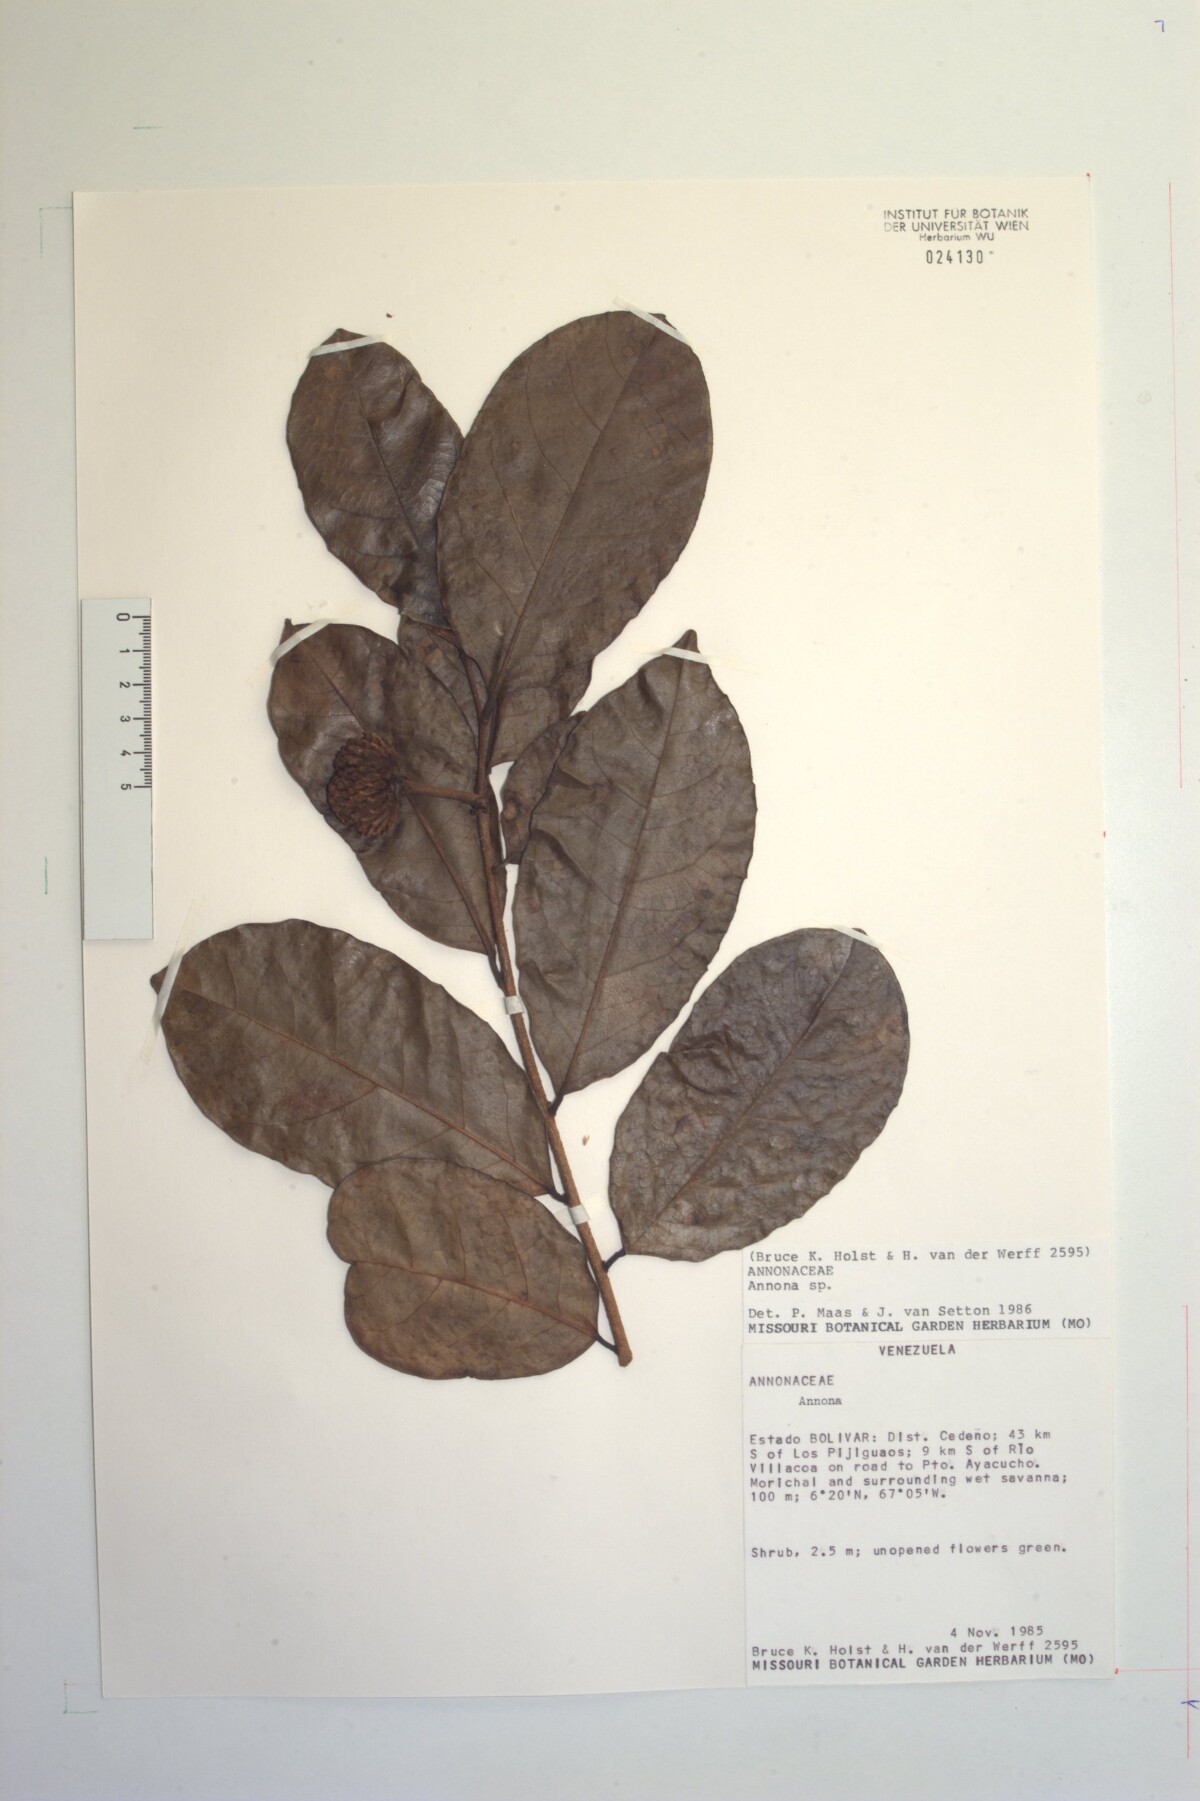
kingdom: Plantae
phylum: Tracheophyta
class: Magnoliopsida
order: Magnoliales
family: Annonaceae
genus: Annona
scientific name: Annona
